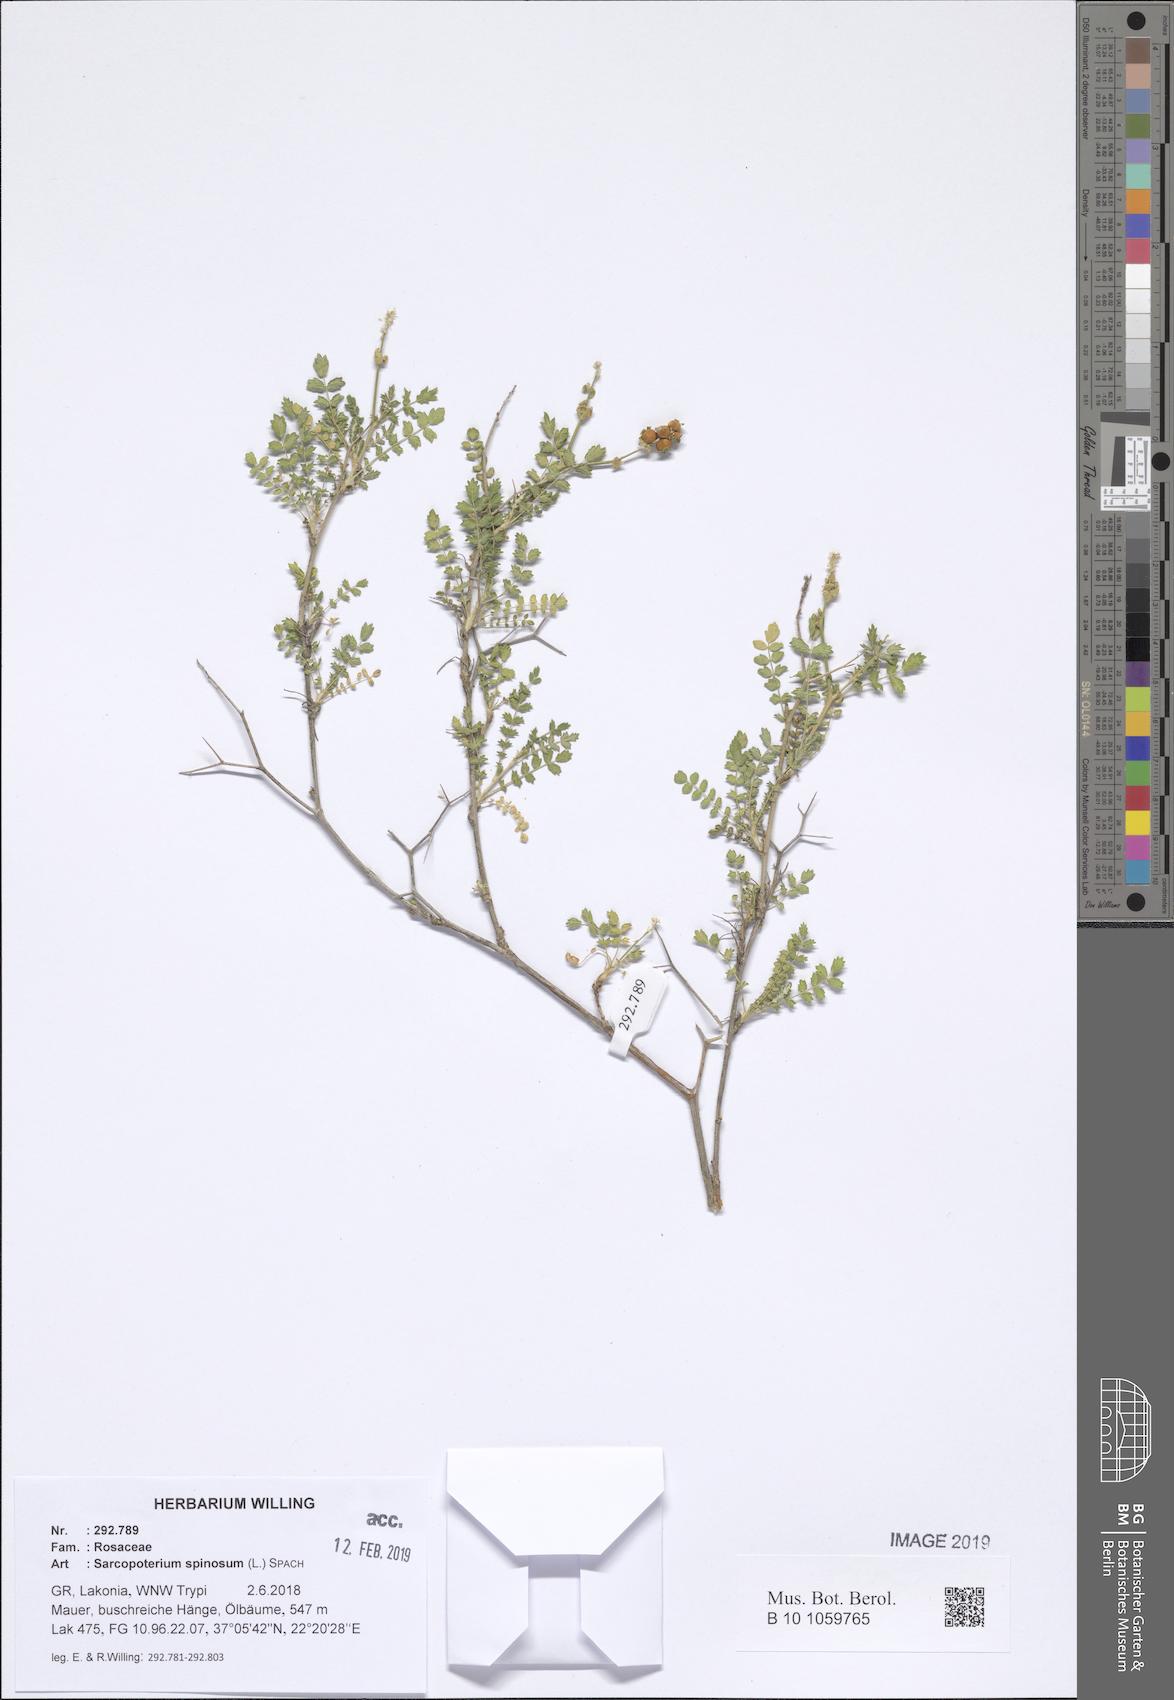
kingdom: Plantae
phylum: Tracheophyta
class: Magnoliopsida
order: Rosales
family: Rosaceae
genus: Sarcopoterium
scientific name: Sarcopoterium spinosum
